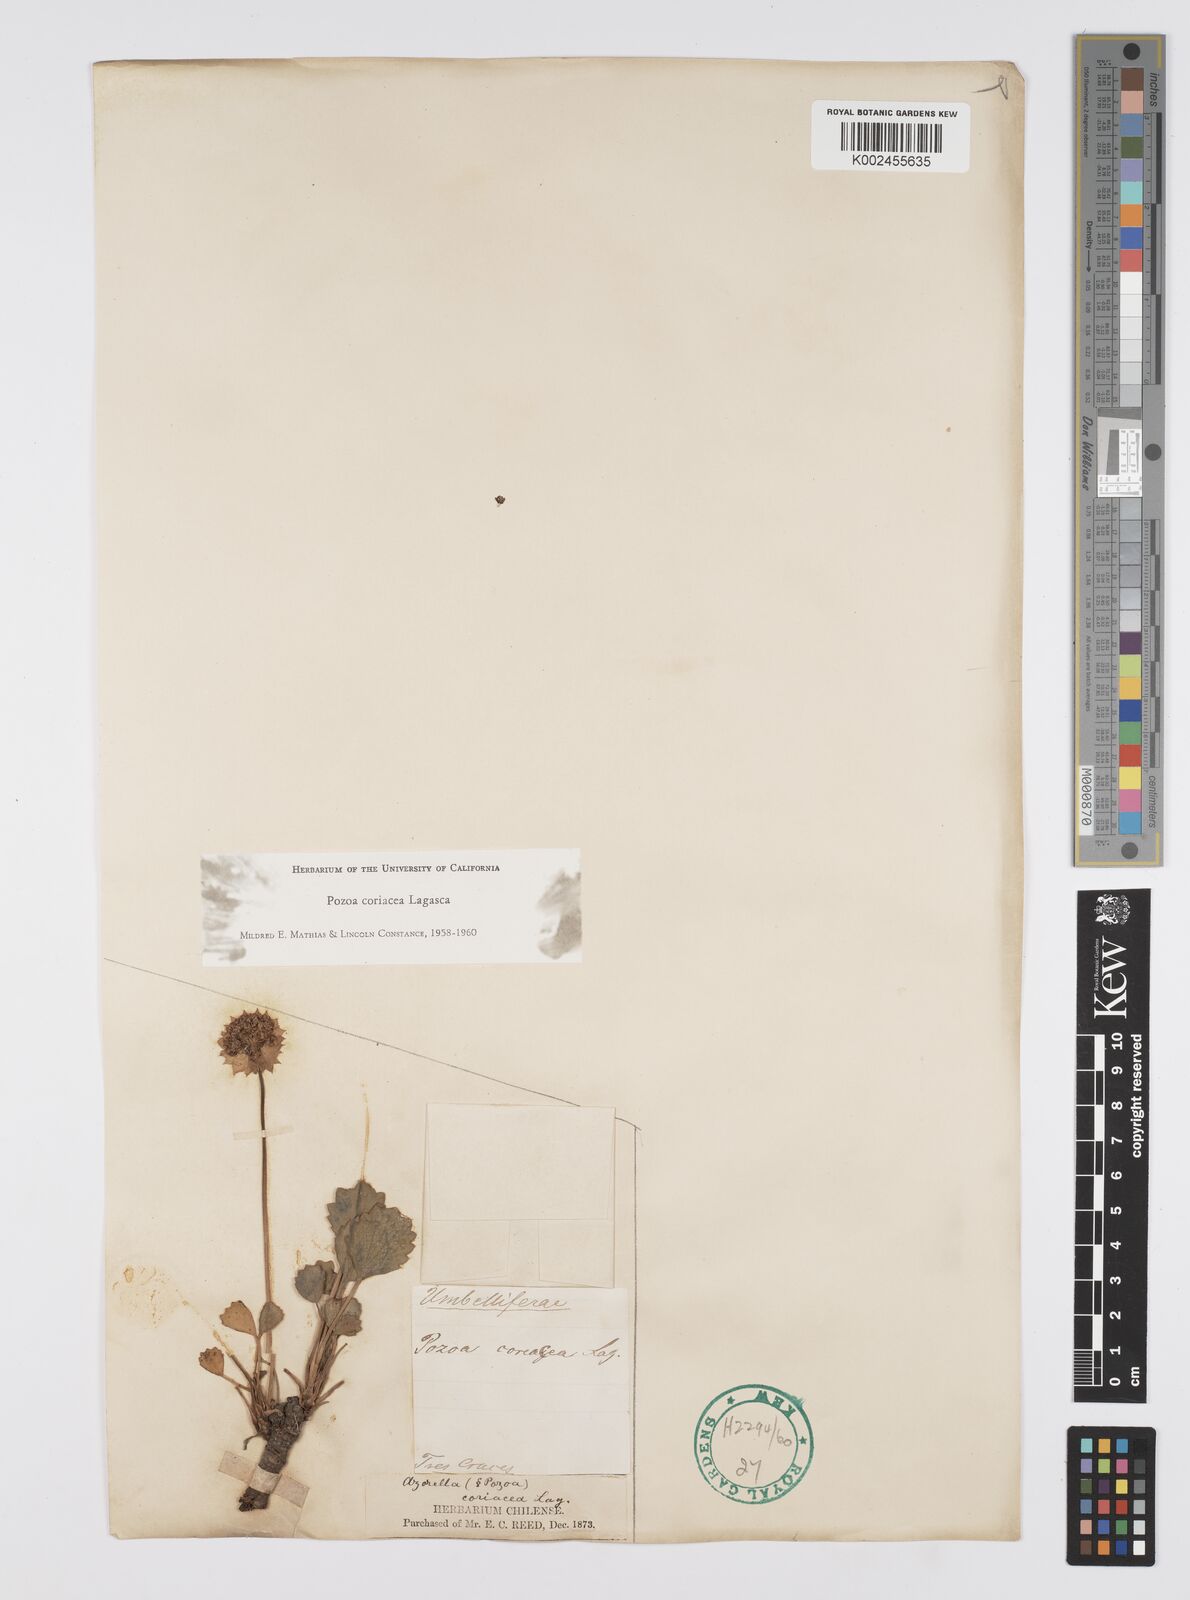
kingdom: Plantae
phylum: Tracheophyta
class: Magnoliopsida
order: Apiales
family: Apiaceae
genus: Pozoa
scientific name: Pozoa coriacea
